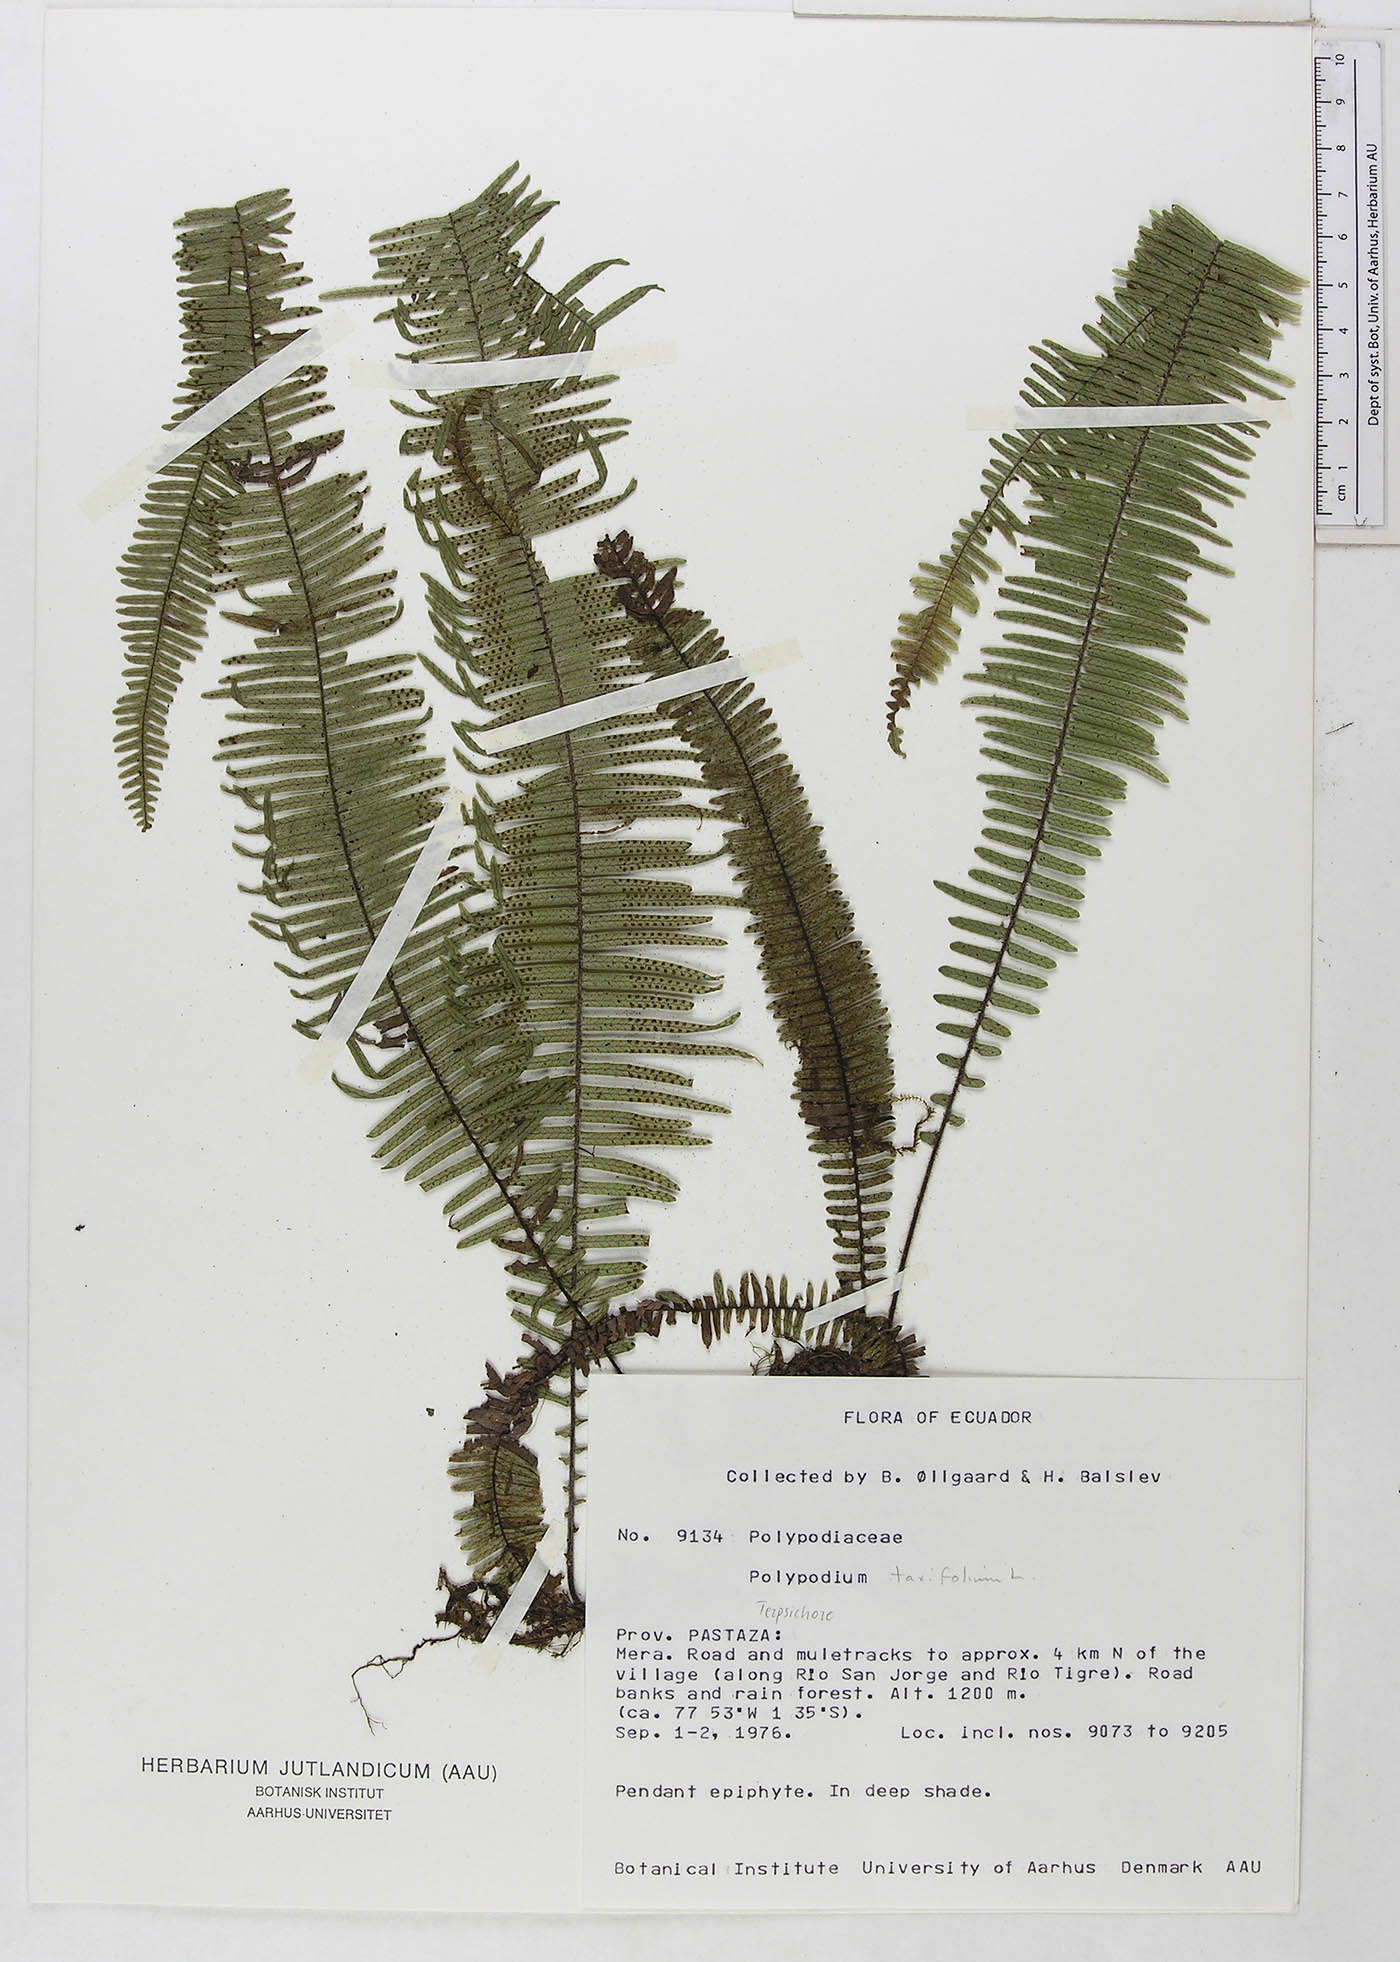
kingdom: Plantae
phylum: Tracheophyta
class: Polypodiopsida
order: Polypodiales
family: Polypodiaceae
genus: Polypodium
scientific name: Polypodium
